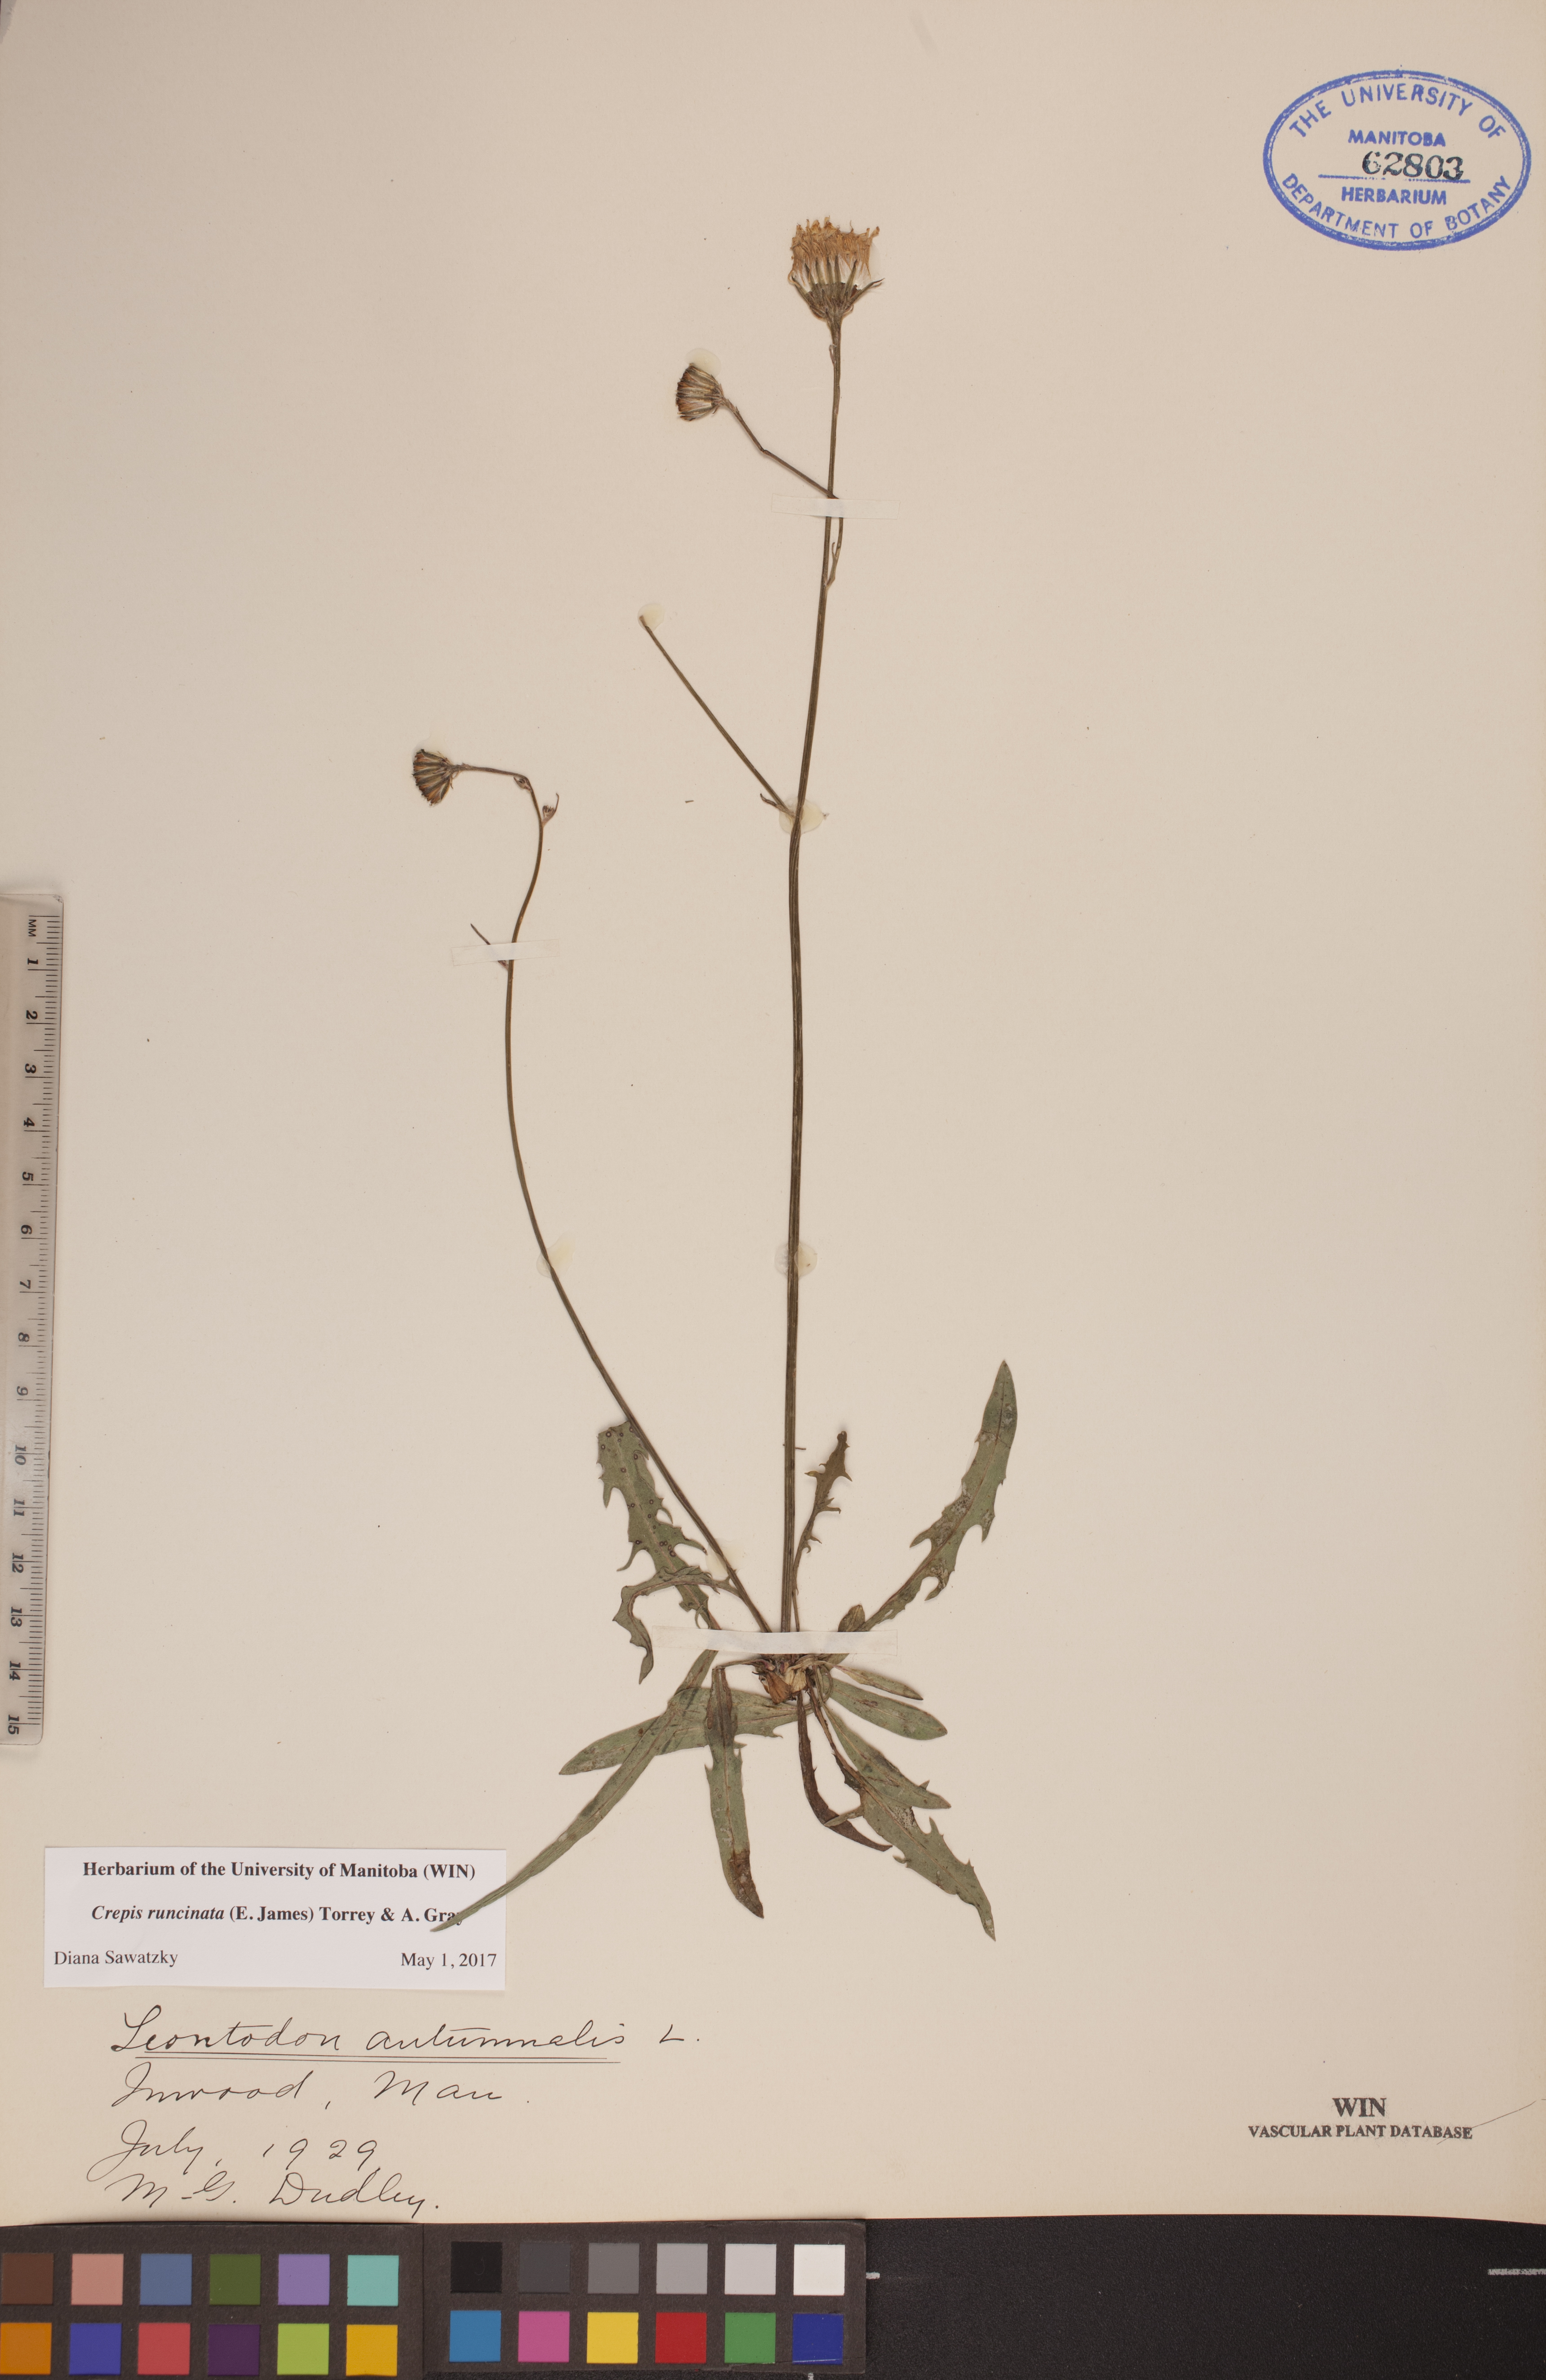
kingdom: Plantae
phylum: Tracheophyta
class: Magnoliopsida
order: Asterales
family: Asteraceae
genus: Crepis
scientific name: Crepis runcinata
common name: Dandelion hawksbeard
